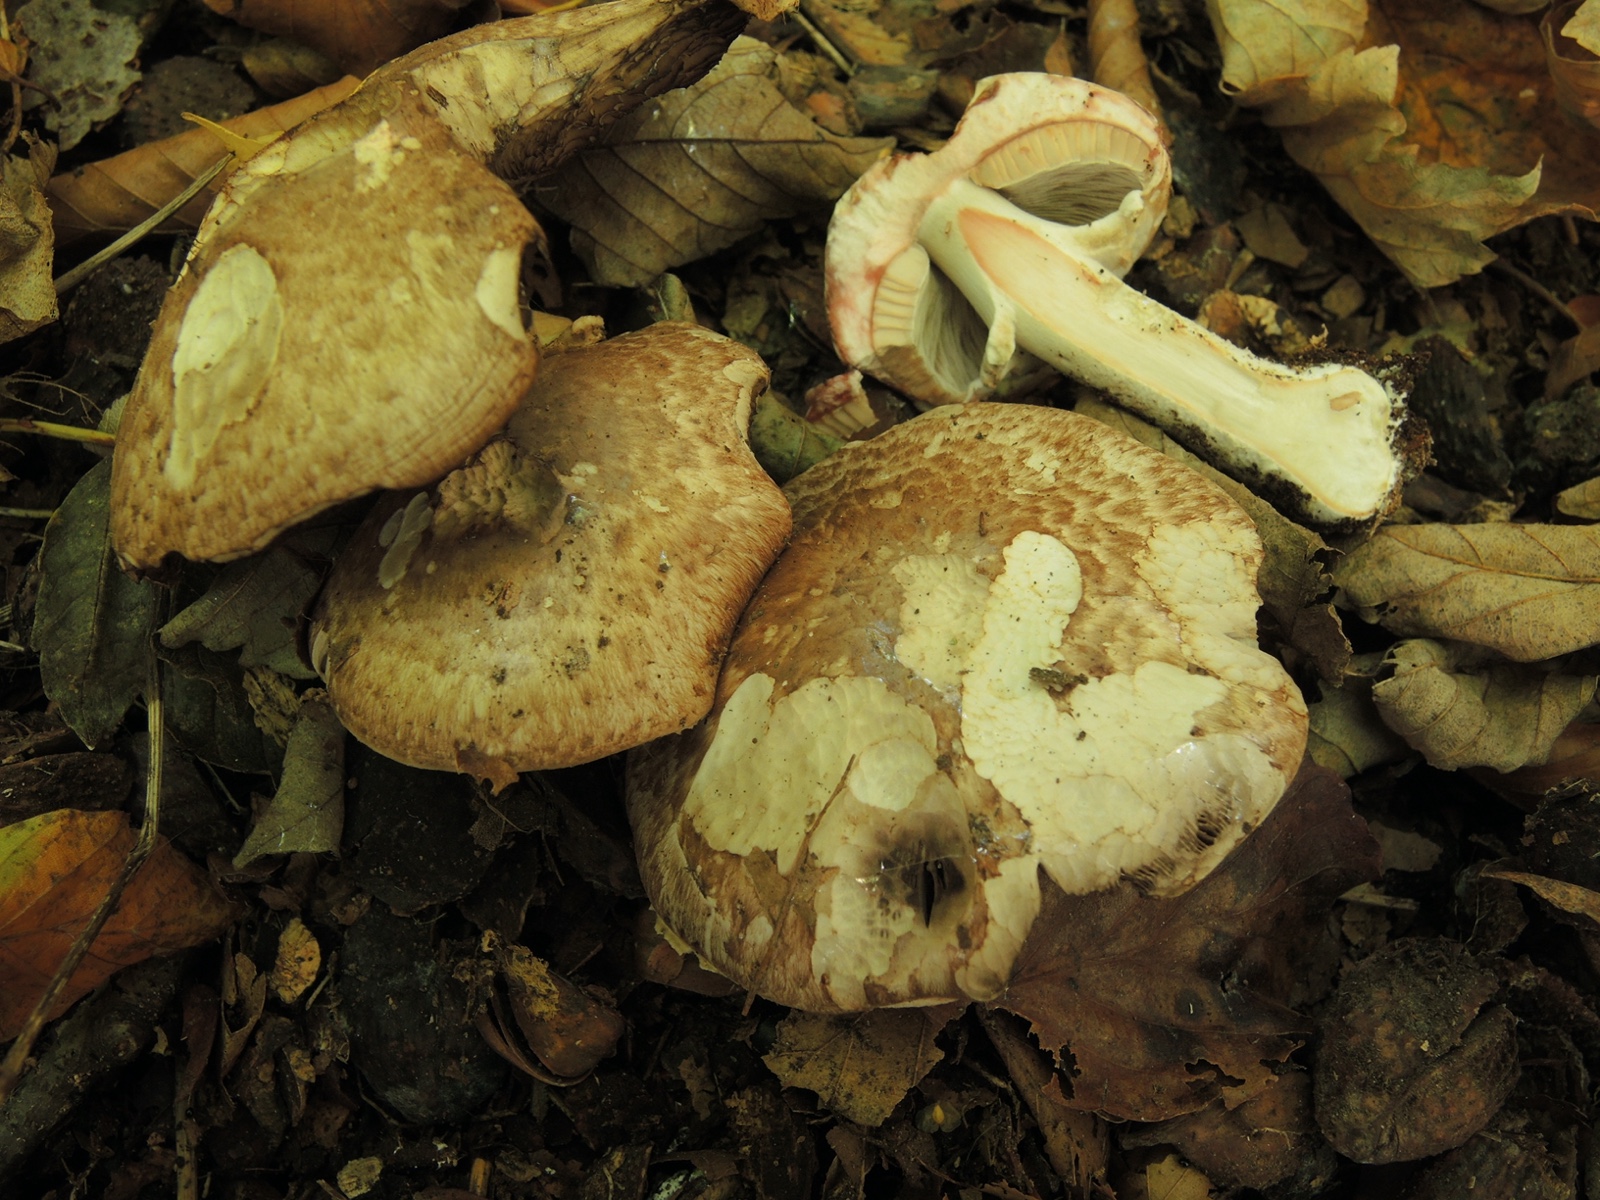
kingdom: Fungi
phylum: Basidiomycota
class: Agaricomycetes
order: Agaricales
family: Agaricaceae
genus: Agaricus
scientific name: Agaricus langei
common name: stor blod-champignon
